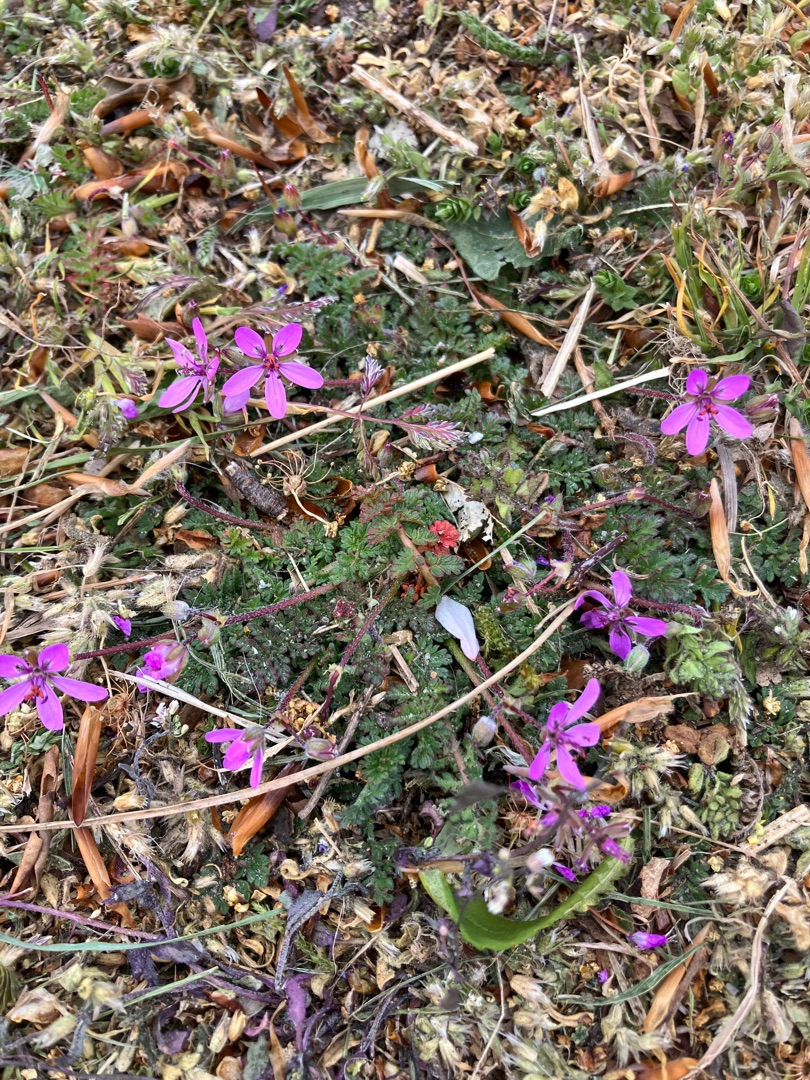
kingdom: Plantae
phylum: Tracheophyta
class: Magnoliopsida
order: Geraniales
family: Geraniaceae
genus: Erodium
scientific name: Erodium cicutarium
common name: Hejrenæb
